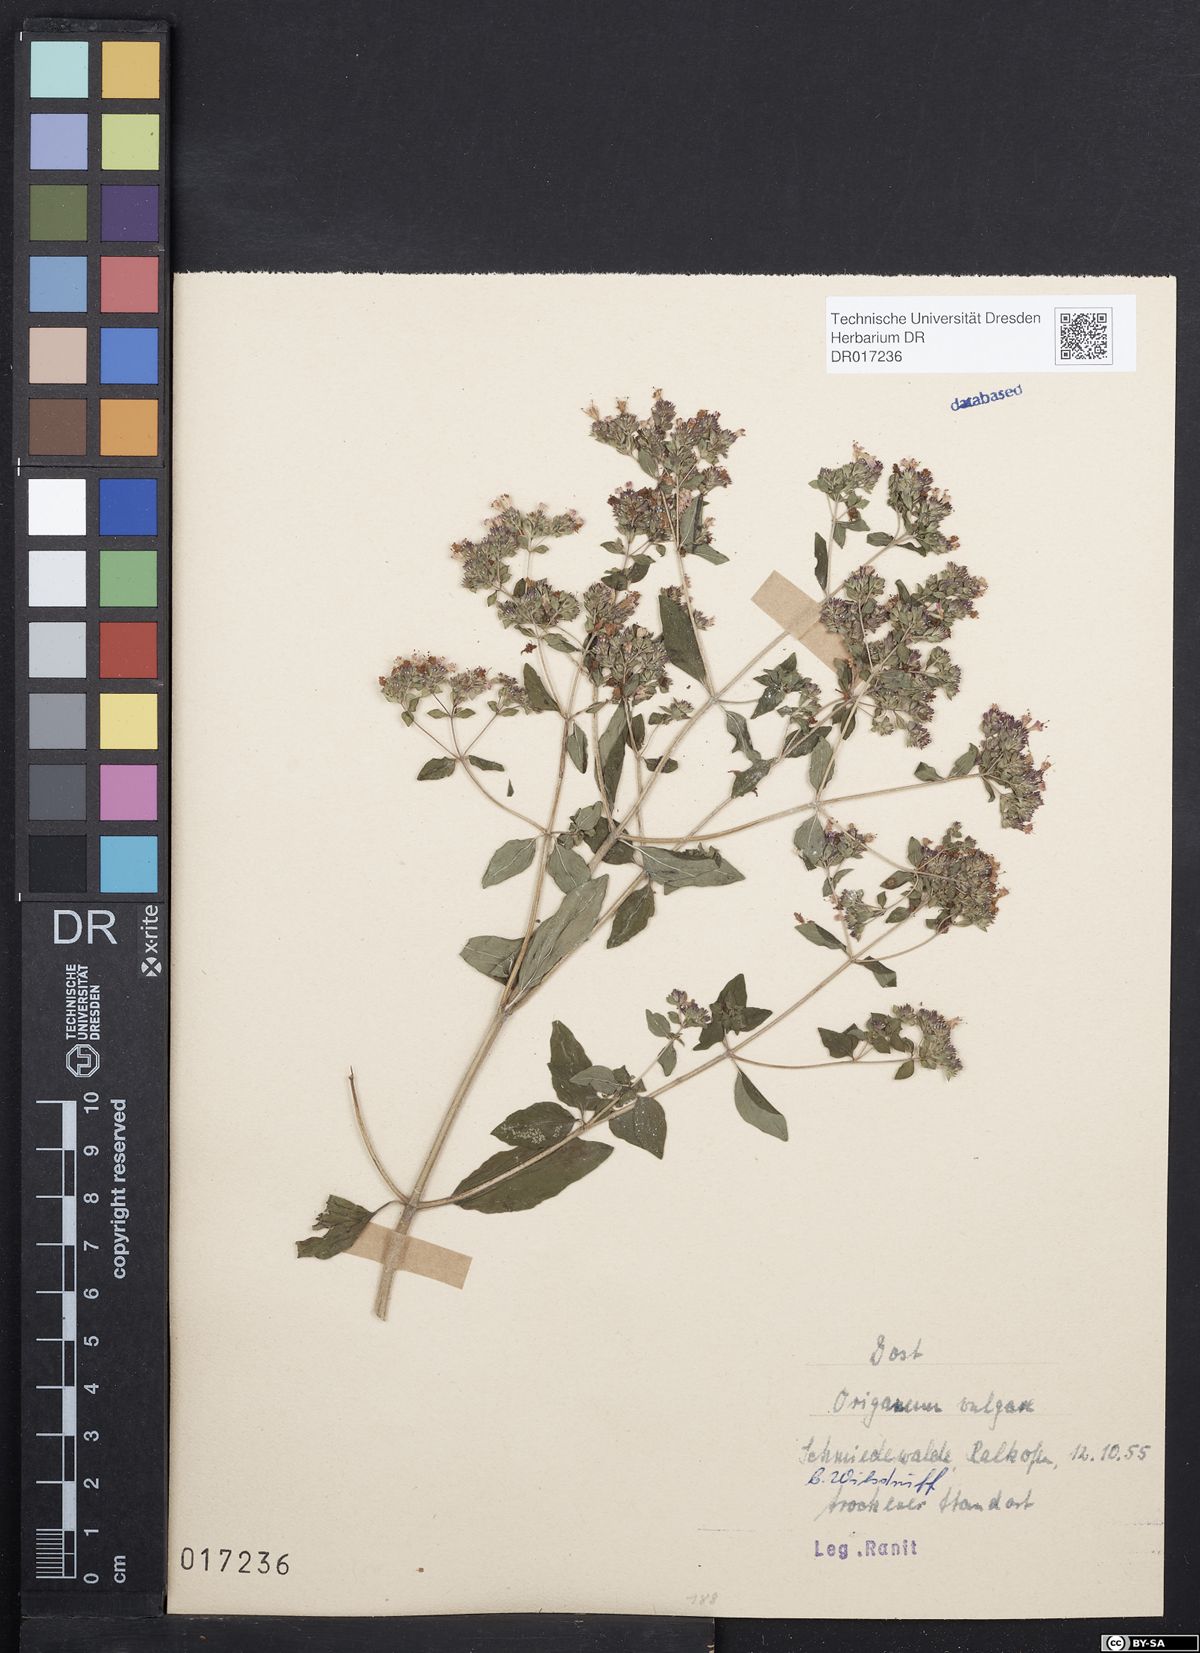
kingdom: Plantae
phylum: Tracheophyta
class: Magnoliopsida
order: Lamiales
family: Lamiaceae
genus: Origanum
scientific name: Origanum vulgare
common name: Wild marjoram
